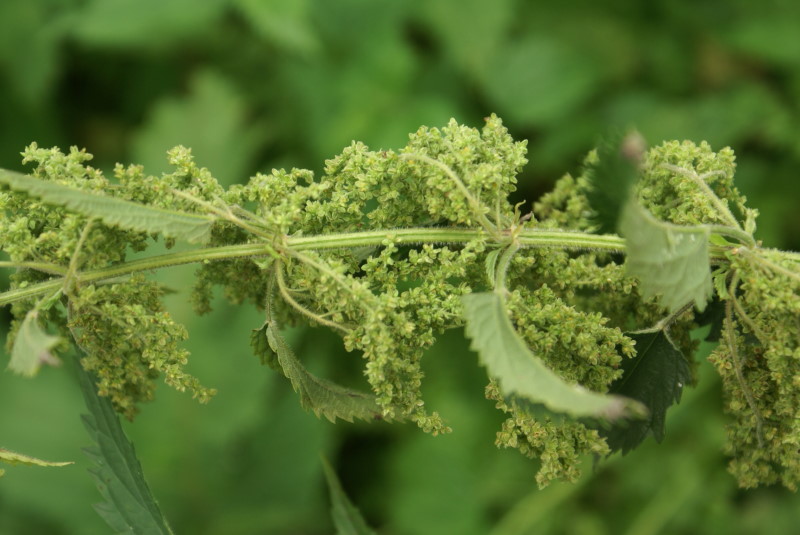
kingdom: Plantae
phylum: Tracheophyta
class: Magnoliopsida
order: Rosales
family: Urticaceae
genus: Urtica
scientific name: Urtica dioica
